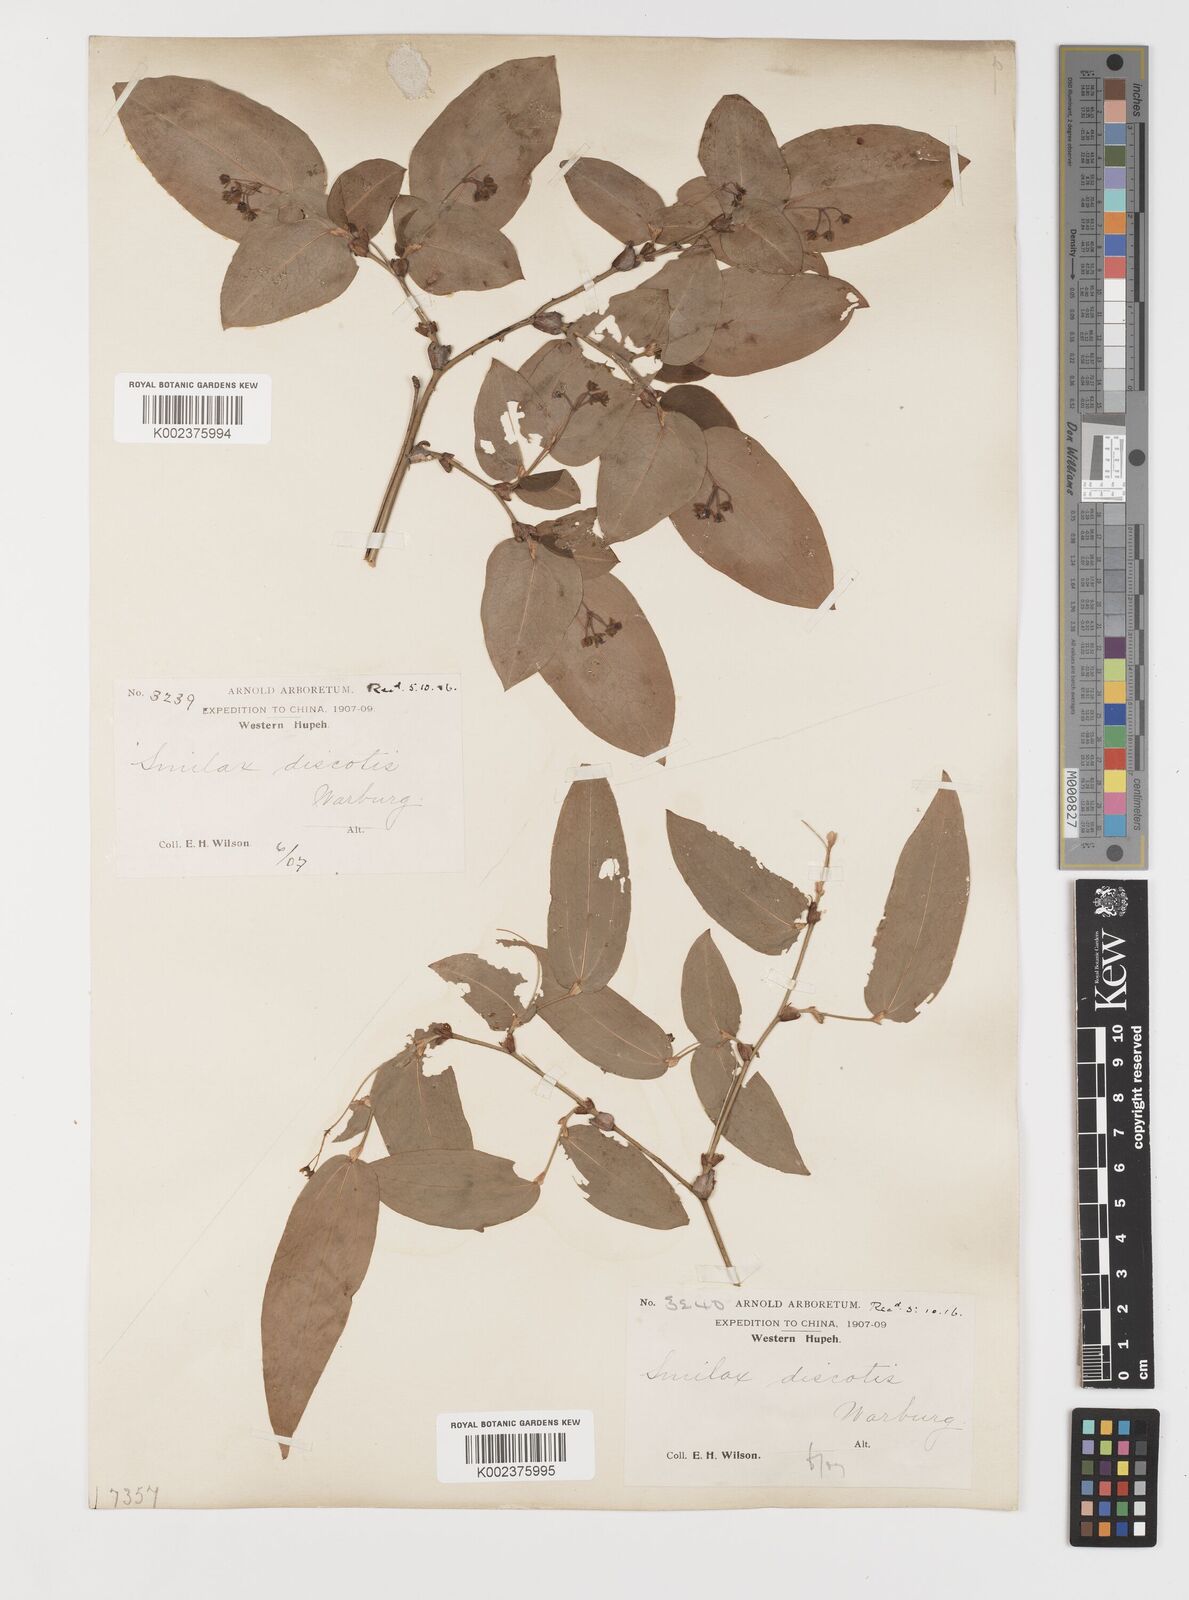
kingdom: Plantae
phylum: Tracheophyta
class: Liliopsida
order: Liliales
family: Smilacaceae
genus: Smilax
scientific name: Smilax discotis
